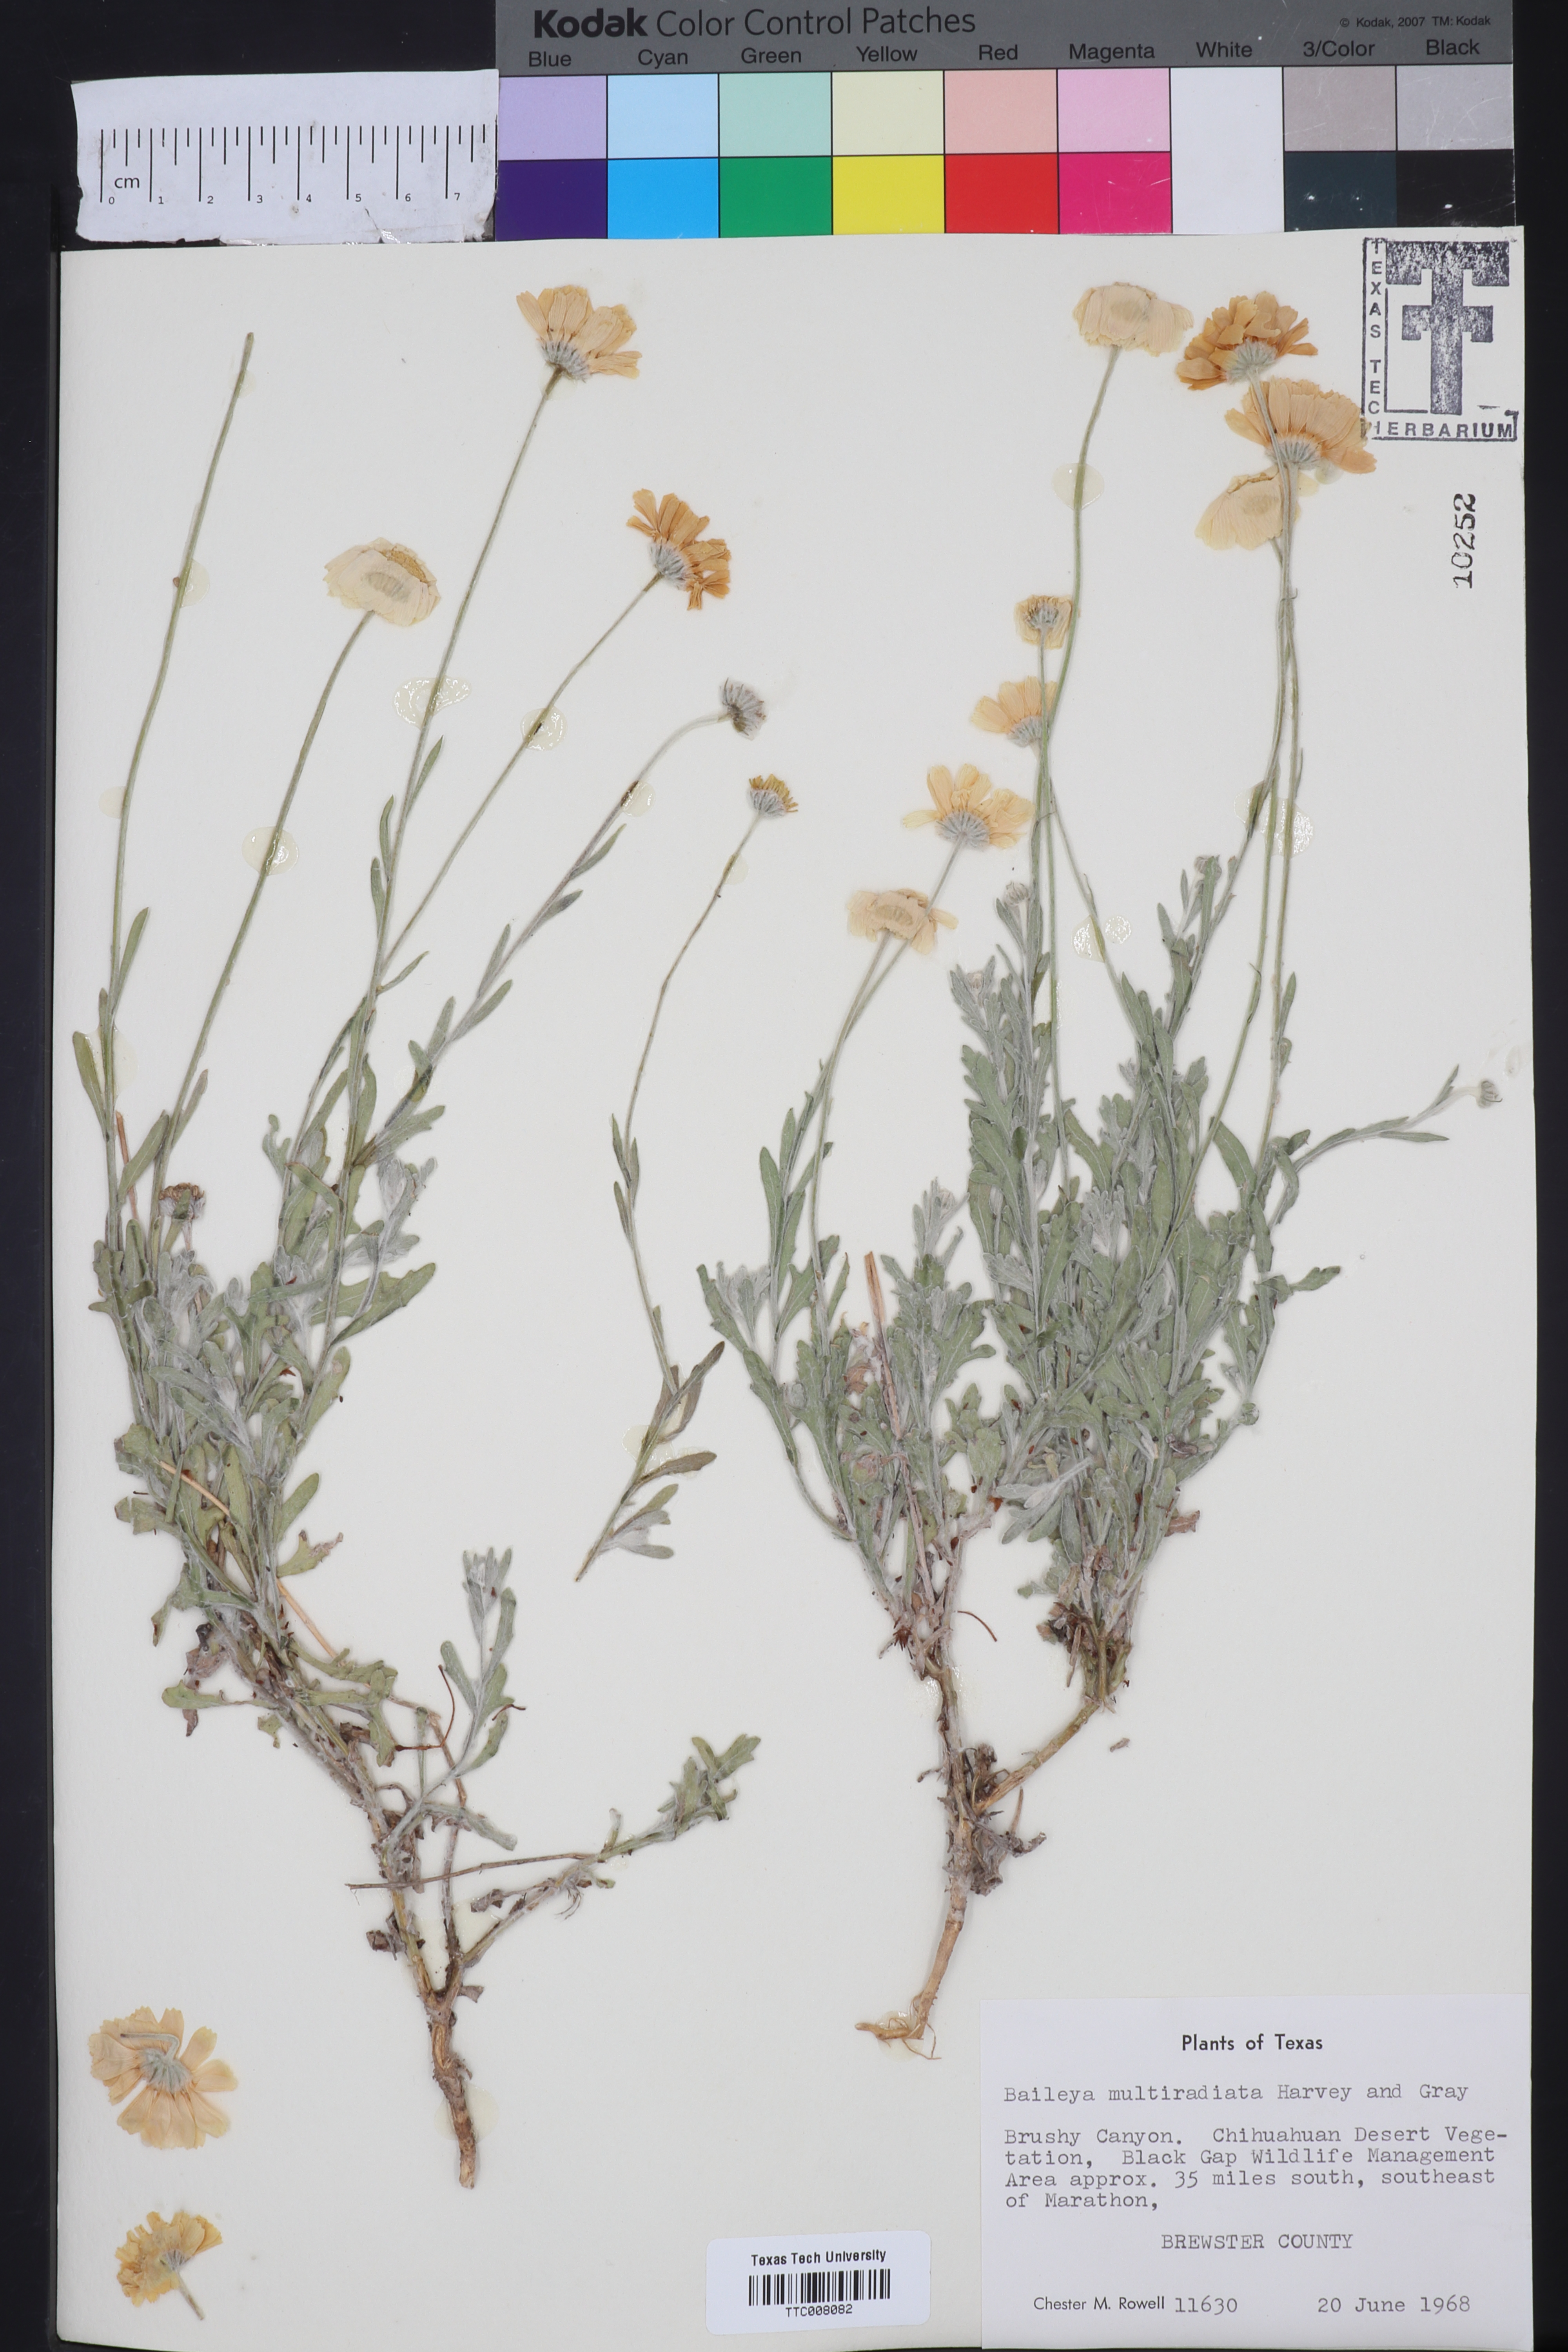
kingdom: Plantae
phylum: Tracheophyta
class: Magnoliopsida
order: Asterales
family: Asteraceae
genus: Baileya
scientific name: Baileya multiradiata
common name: Desert-marigold
